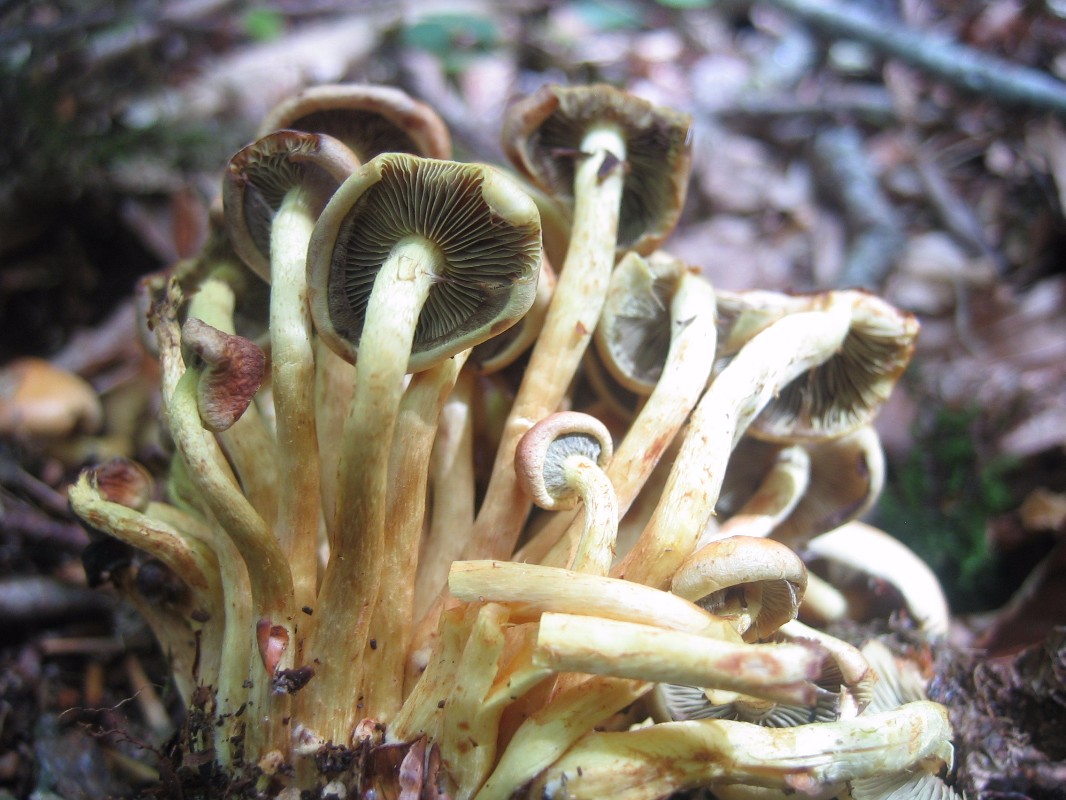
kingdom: Fungi
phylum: Basidiomycota
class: Agaricomycetes
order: Agaricales
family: Strophariaceae
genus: Hypholoma
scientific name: Hypholoma fasciculare
